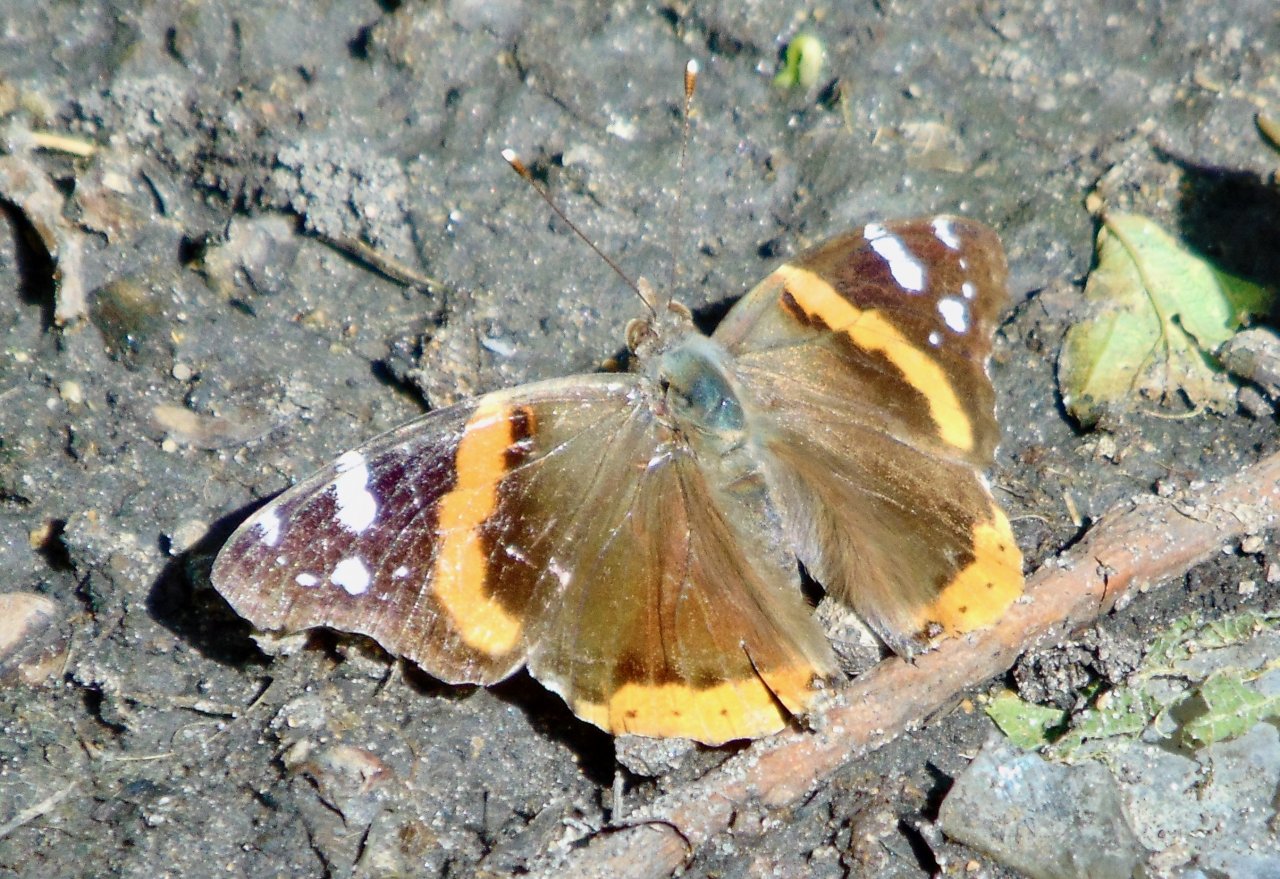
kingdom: Animalia
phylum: Arthropoda
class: Insecta
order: Lepidoptera
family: Nymphalidae
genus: Vanessa
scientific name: Vanessa atalanta
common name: Red Admiral
